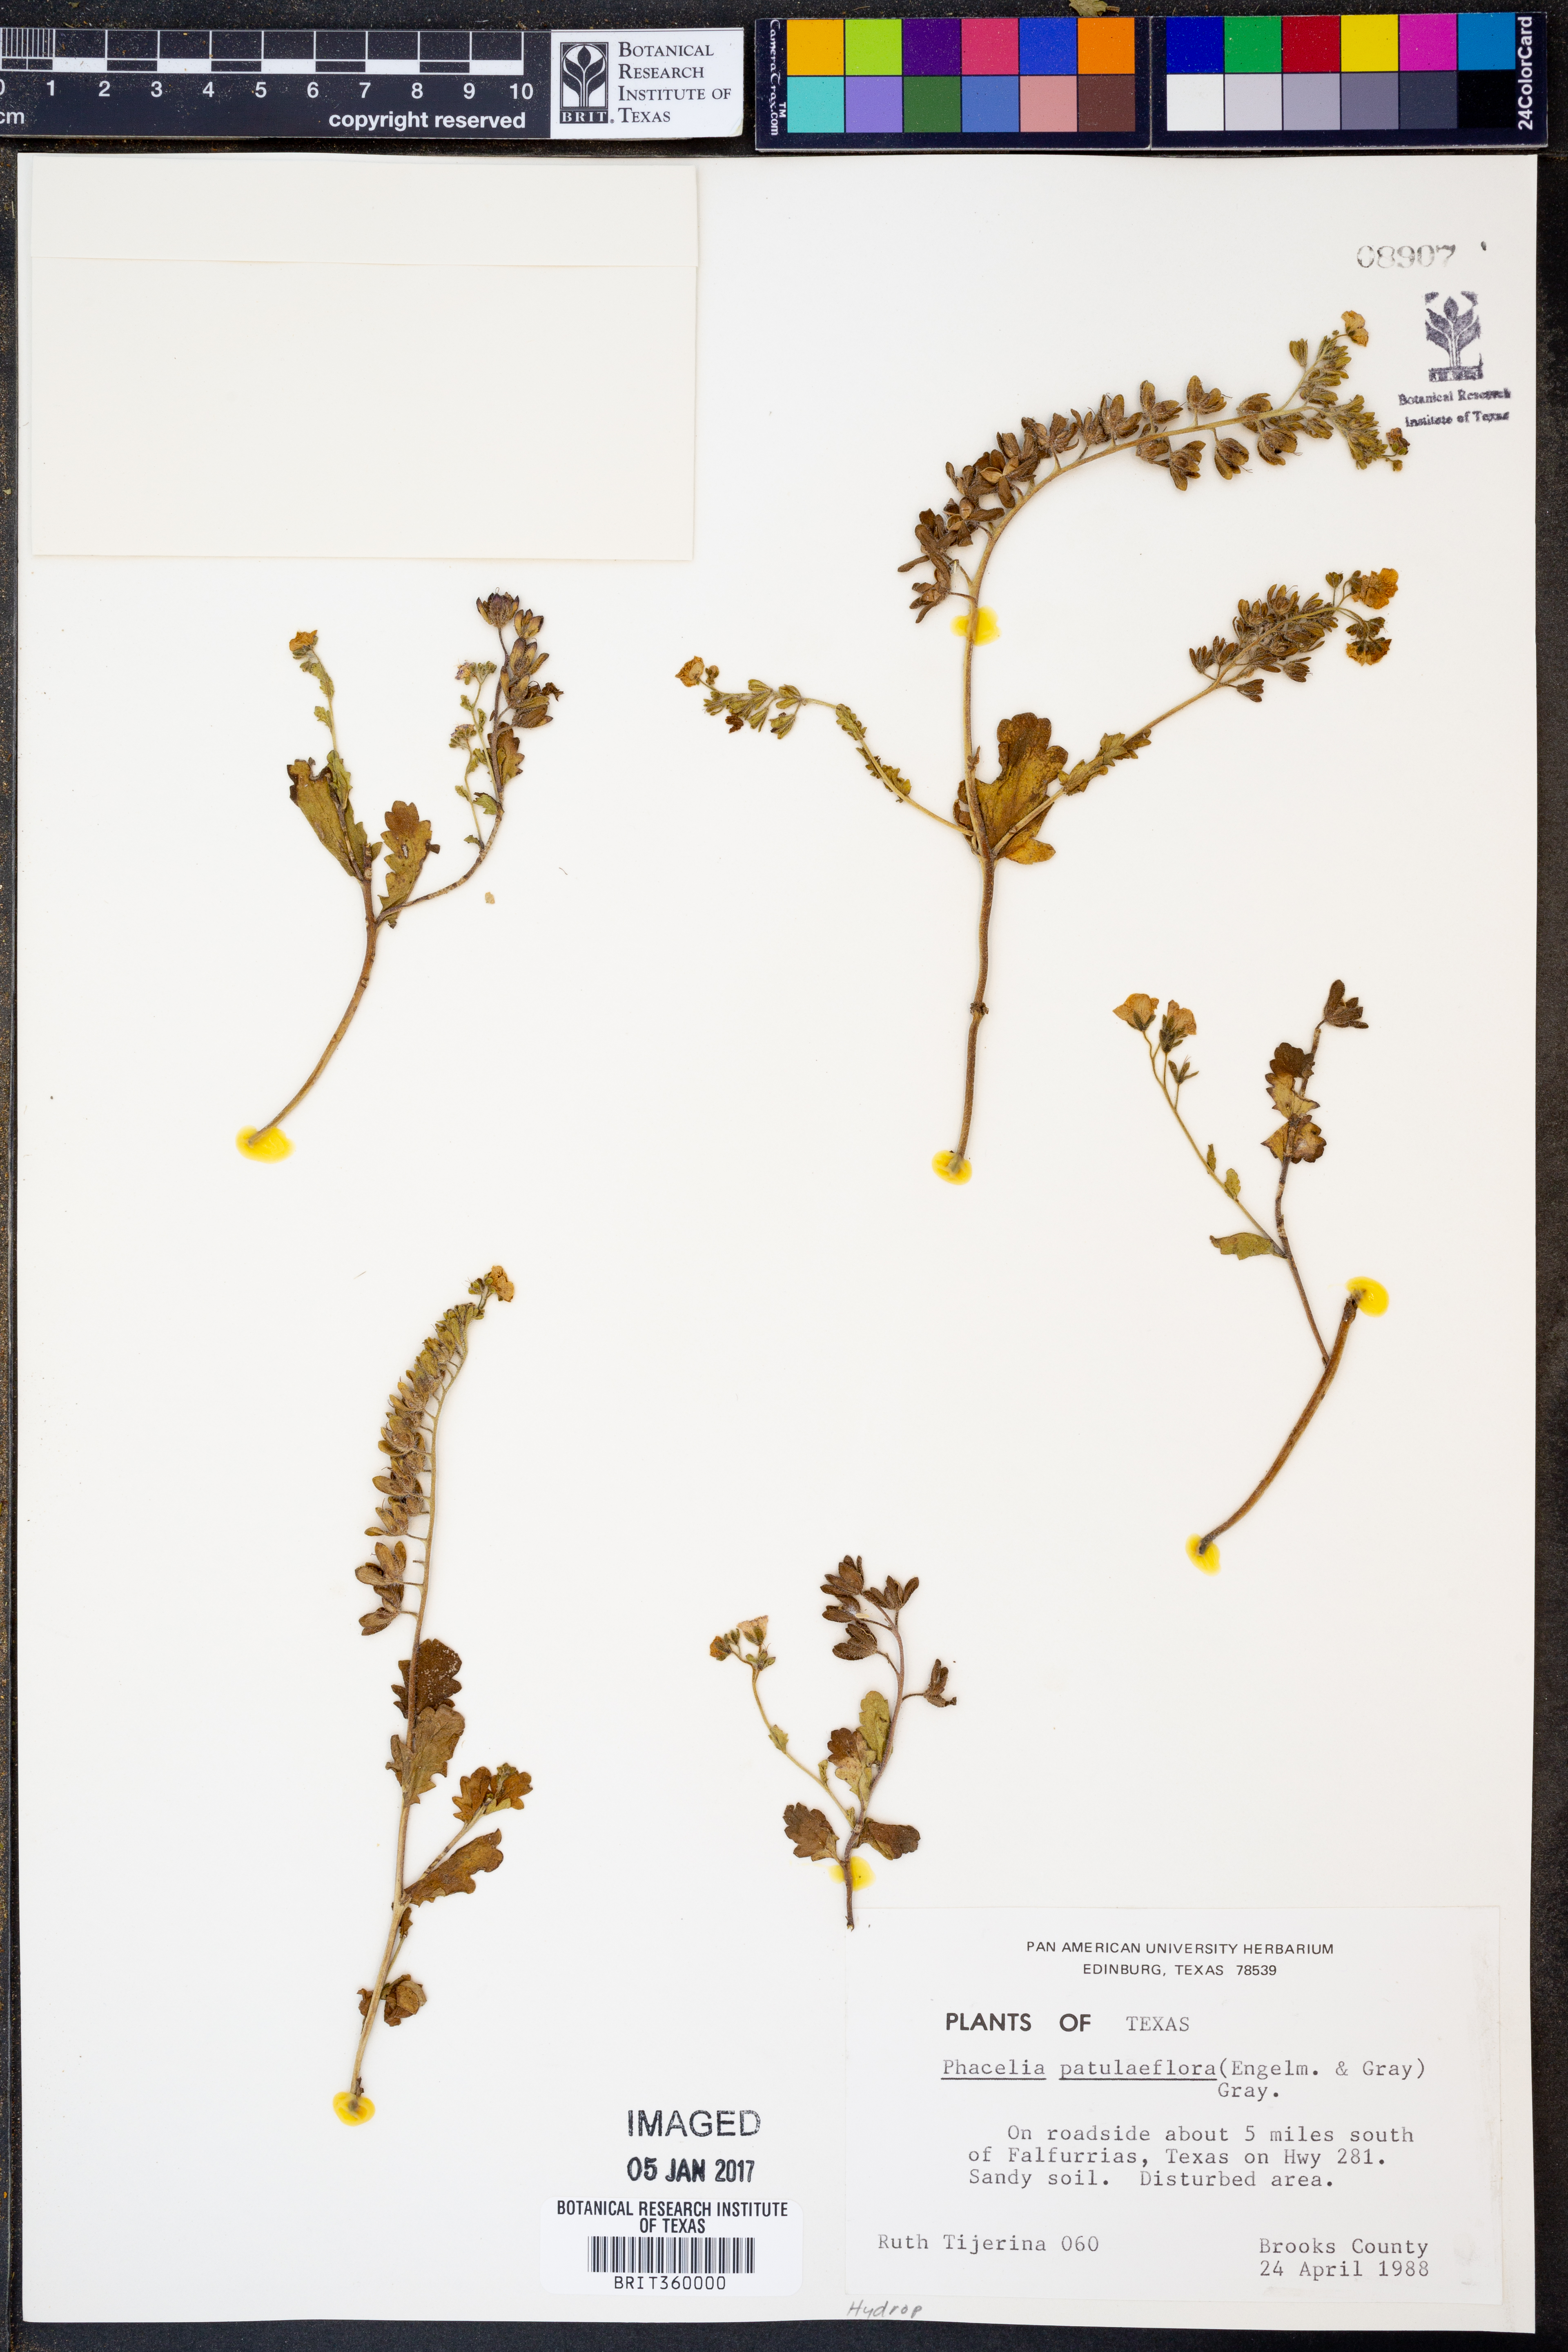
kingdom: Plantae
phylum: Tracheophyta
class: Magnoliopsida
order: Boraginales
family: Hydrophyllaceae
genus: Phacelia
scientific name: Phacelia patuliflora
